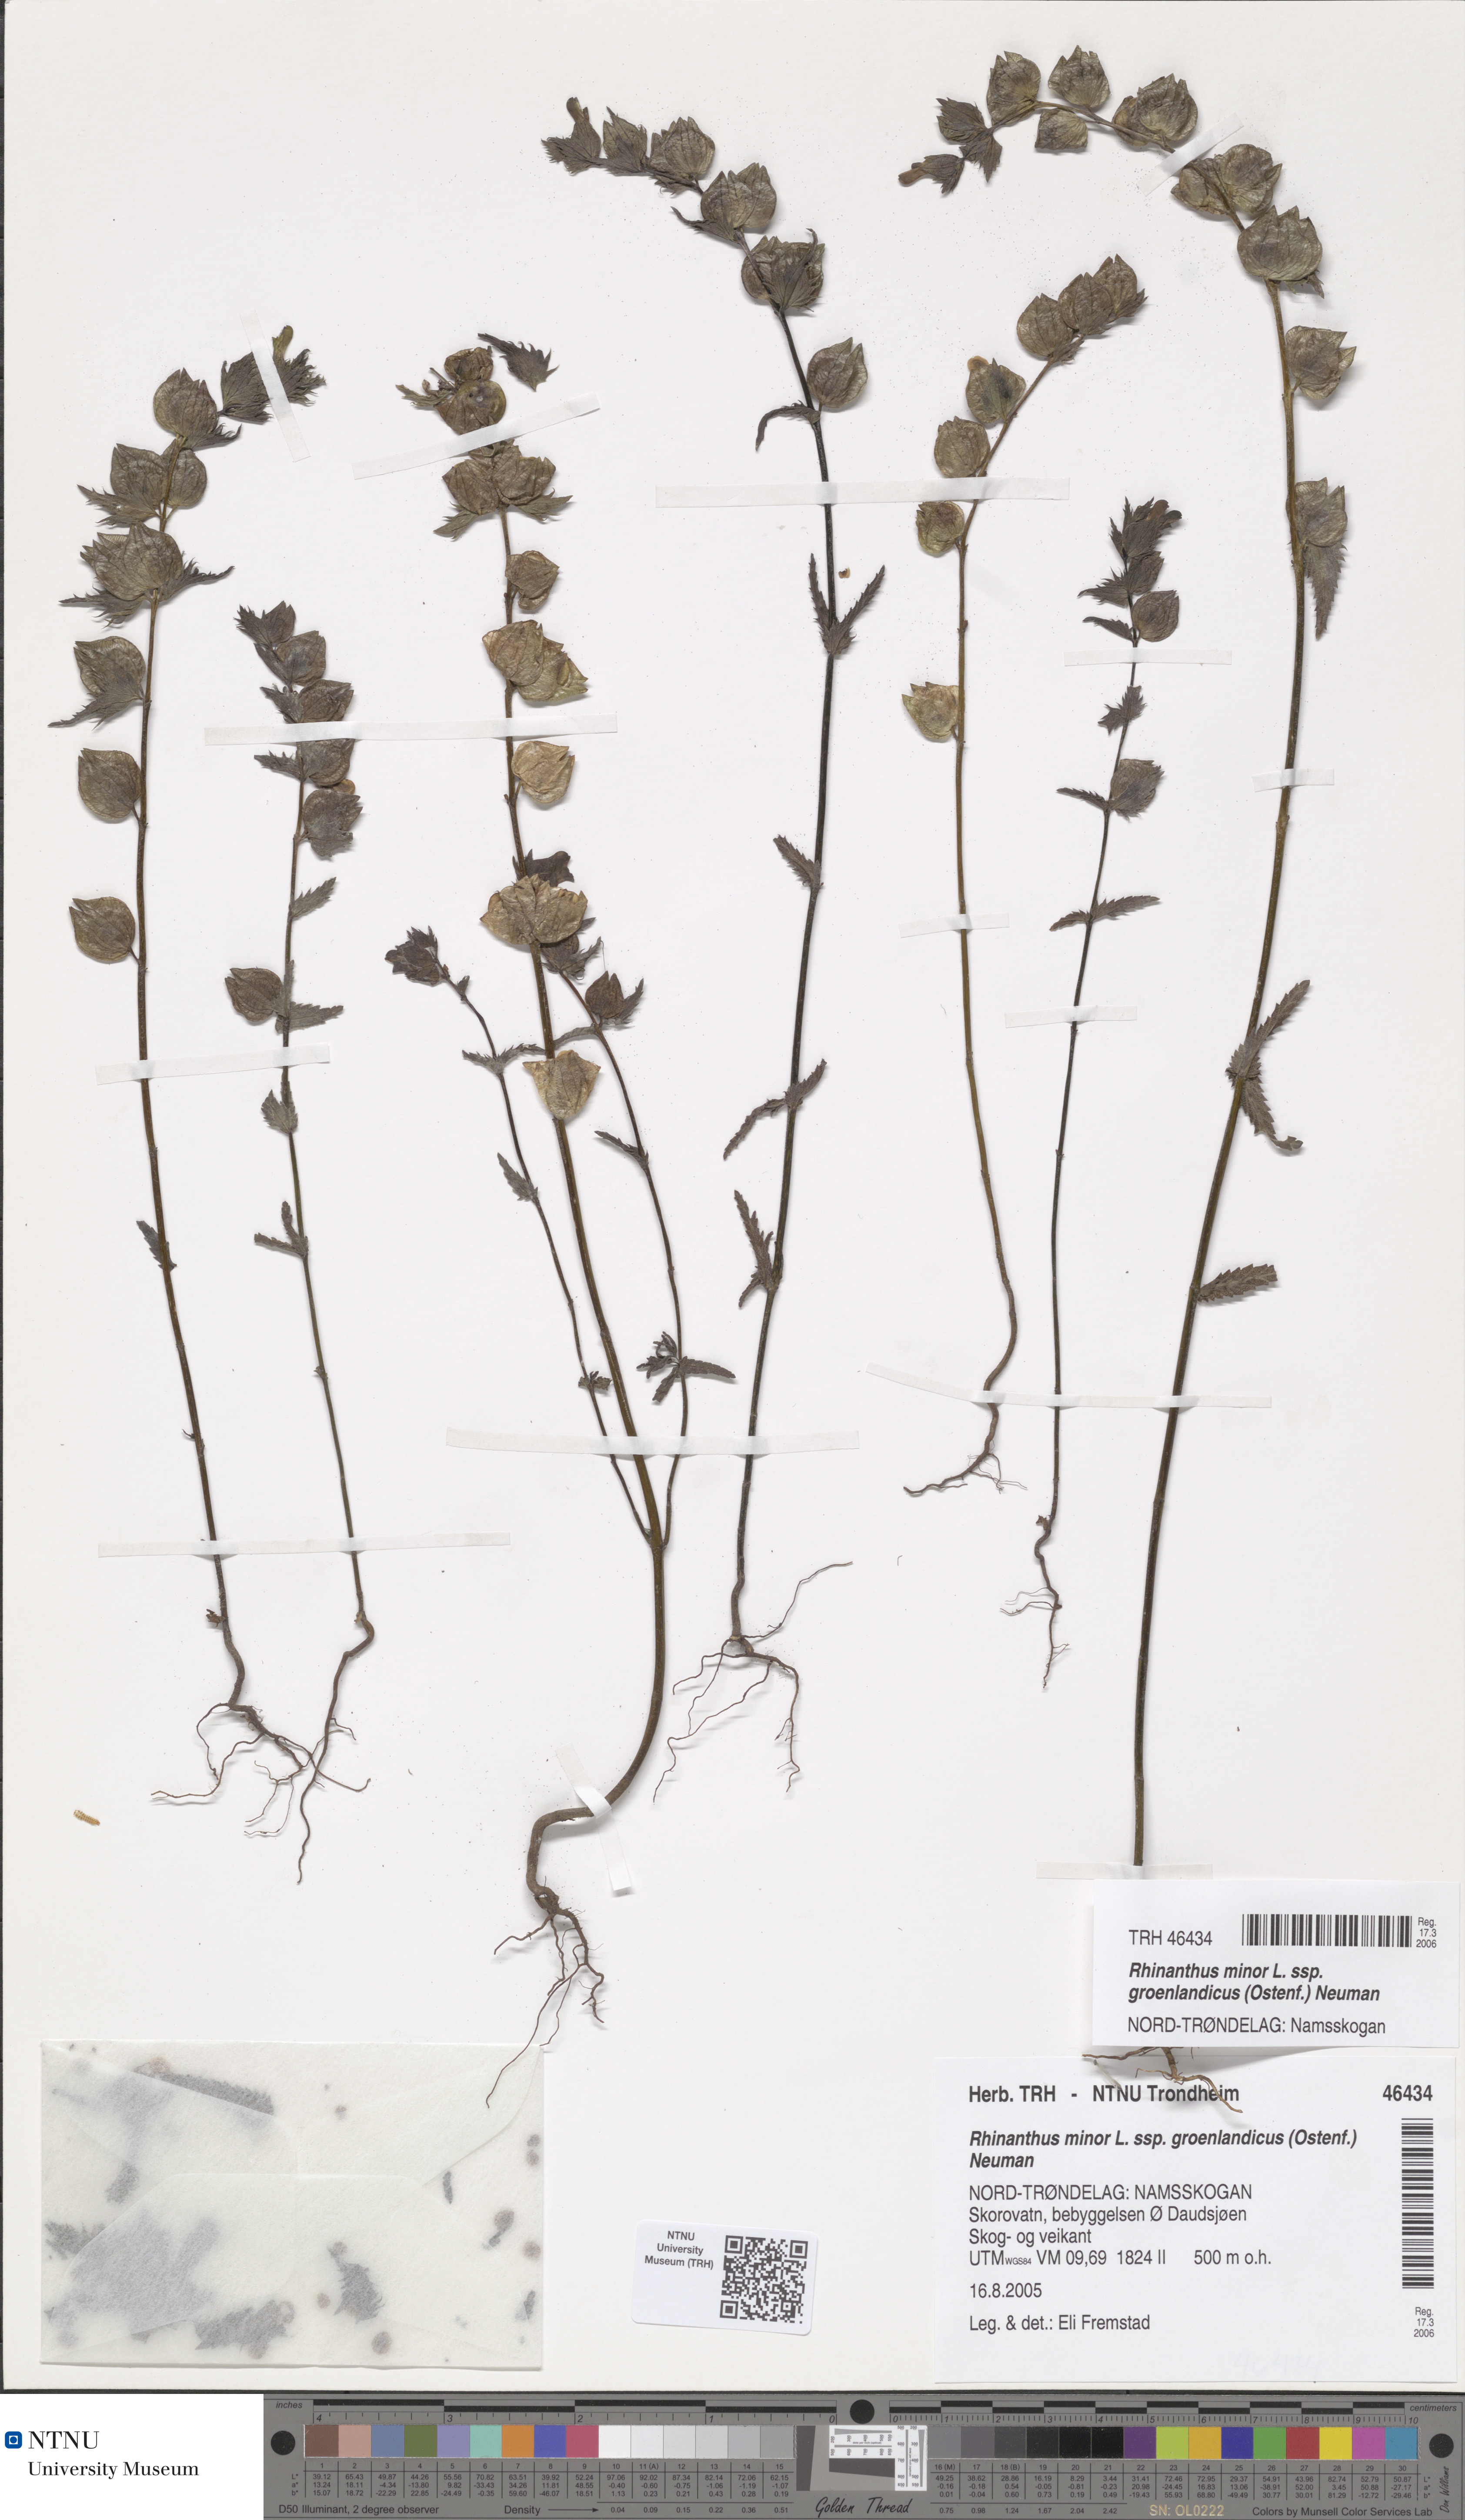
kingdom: Plantae
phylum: Tracheophyta
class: Magnoliopsida
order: Lamiales
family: Orobanchaceae
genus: Rhinanthus
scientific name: Rhinanthus groenlandicus
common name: Little yellow rattle
